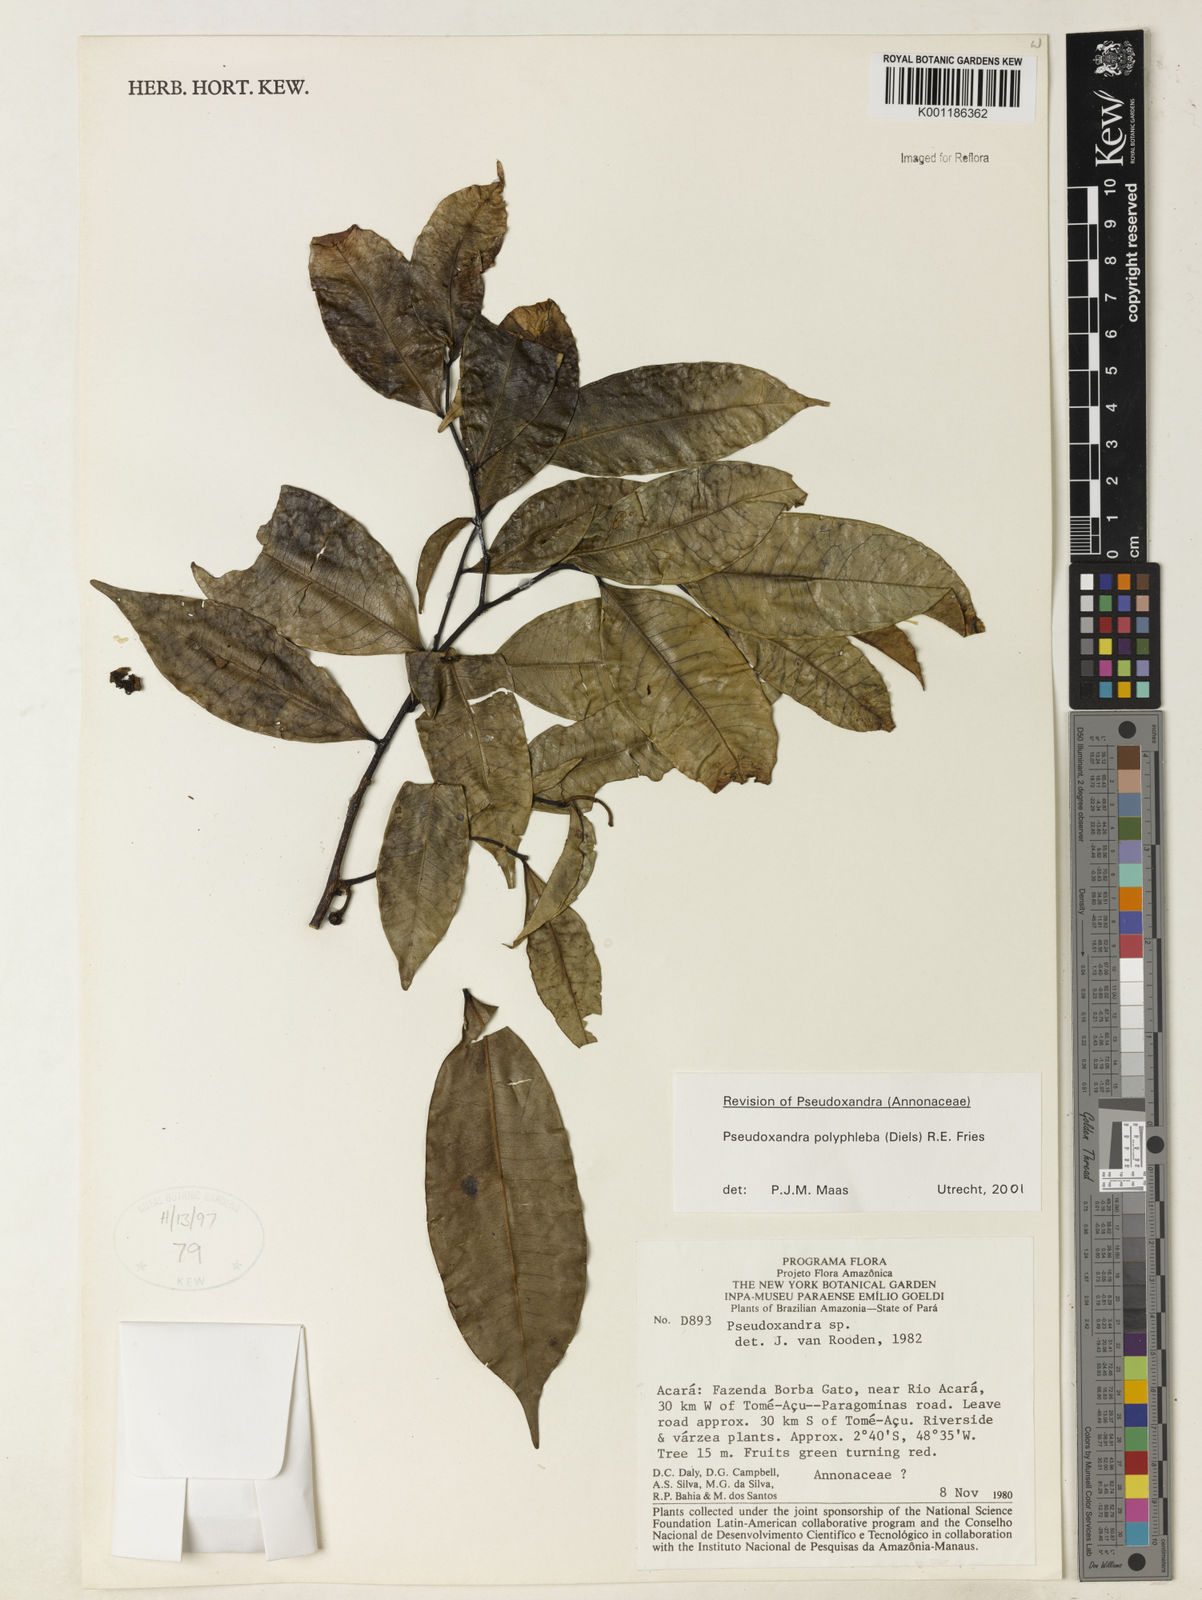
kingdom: Plantae
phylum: Tracheophyta
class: Magnoliopsida
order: Magnoliales
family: Annonaceae
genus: Pseudoxandra
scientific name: Pseudoxandra polyphleba
